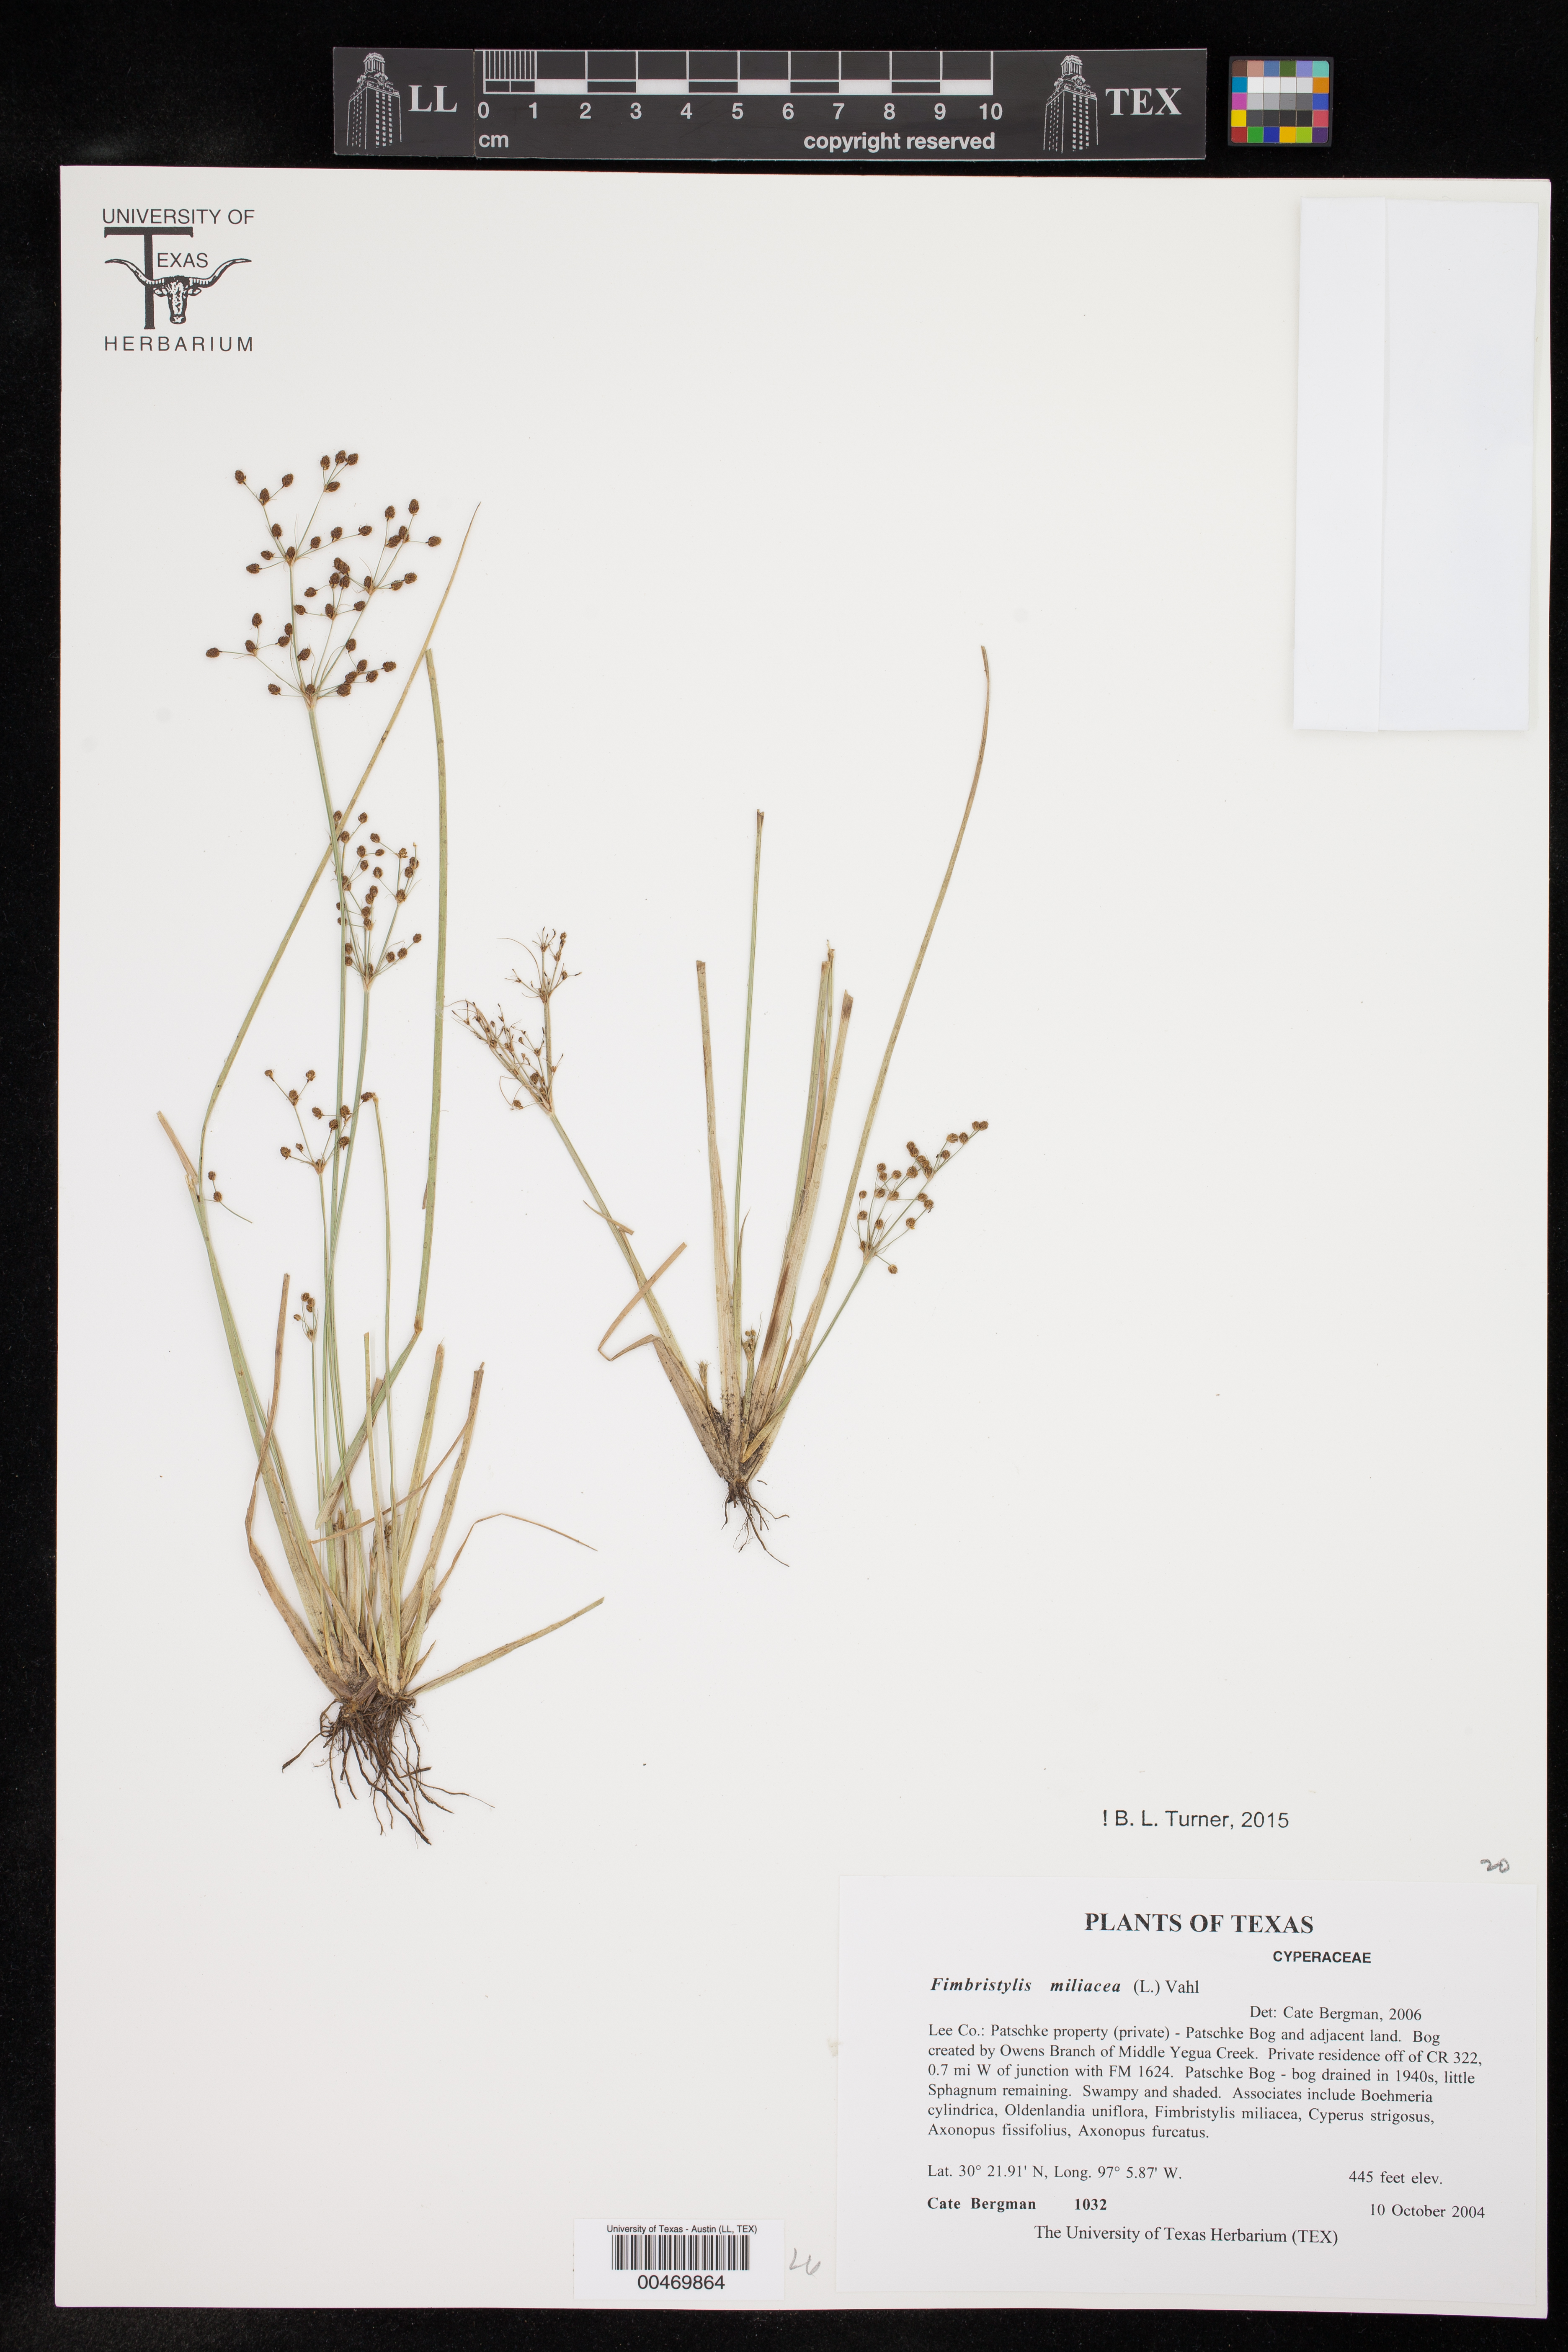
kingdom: Plantae
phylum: Tracheophyta
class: Liliopsida
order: Poales
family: Cyperaceae
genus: Fimbristylis
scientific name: Fimbristylis littoralis
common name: Fimbry
